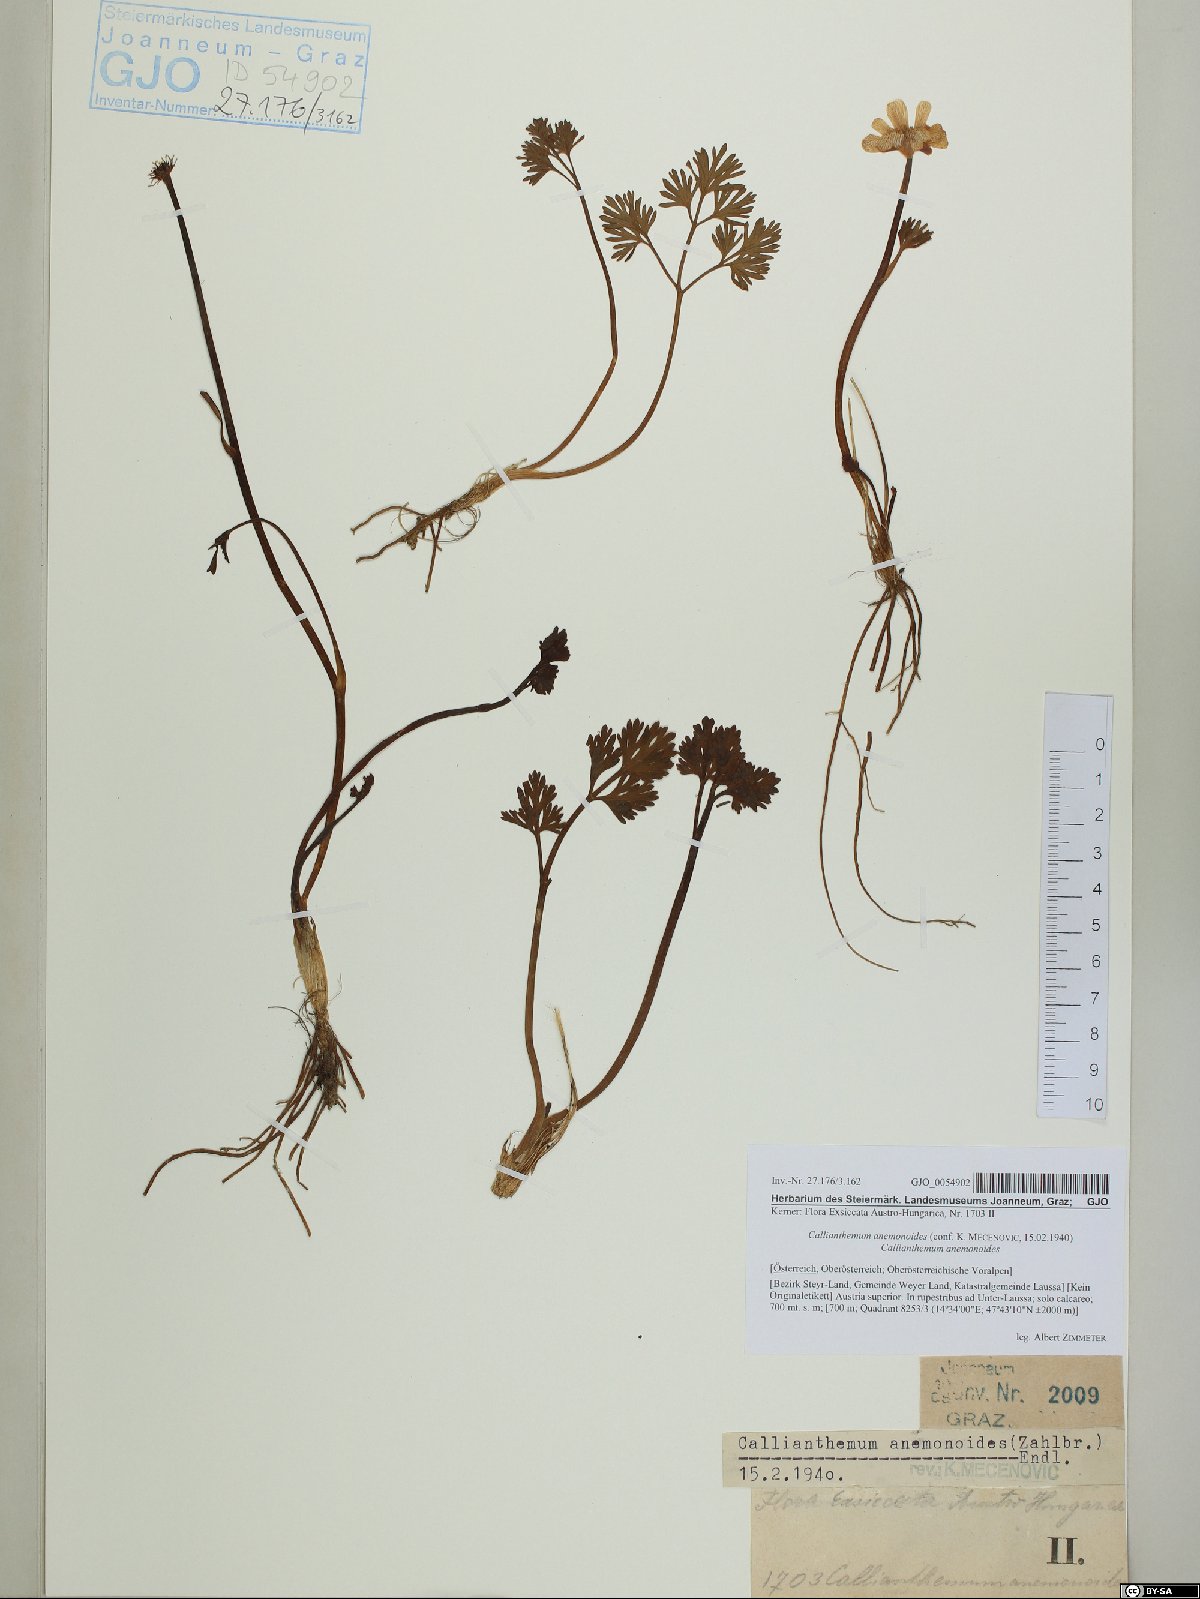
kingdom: Plantae
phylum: Tracheophyta
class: Magnoliopsida
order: Ranunculales
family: Ranunculaceae
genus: Callianthemum
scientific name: Callianthemum anemonoides
